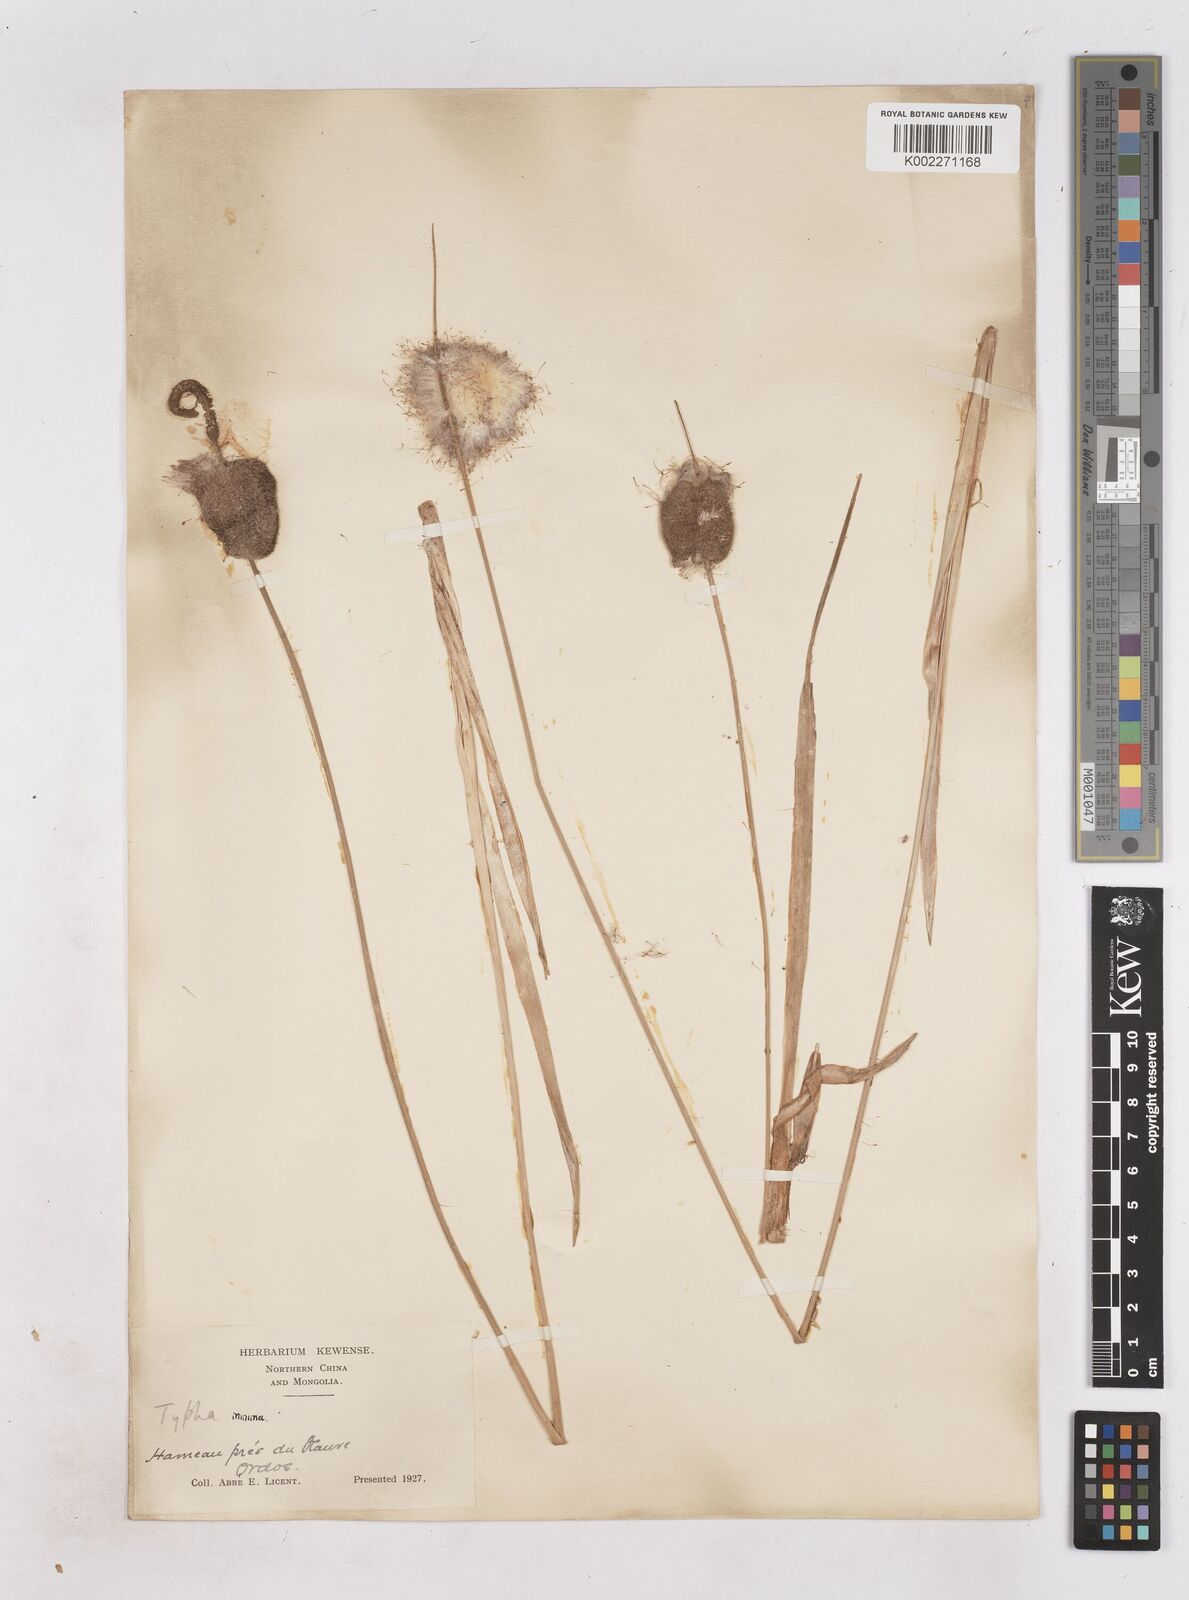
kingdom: Plantae
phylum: Tracheophyta
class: Liliopsida
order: Poales
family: Typhaceae
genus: Typha
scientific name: Typha
